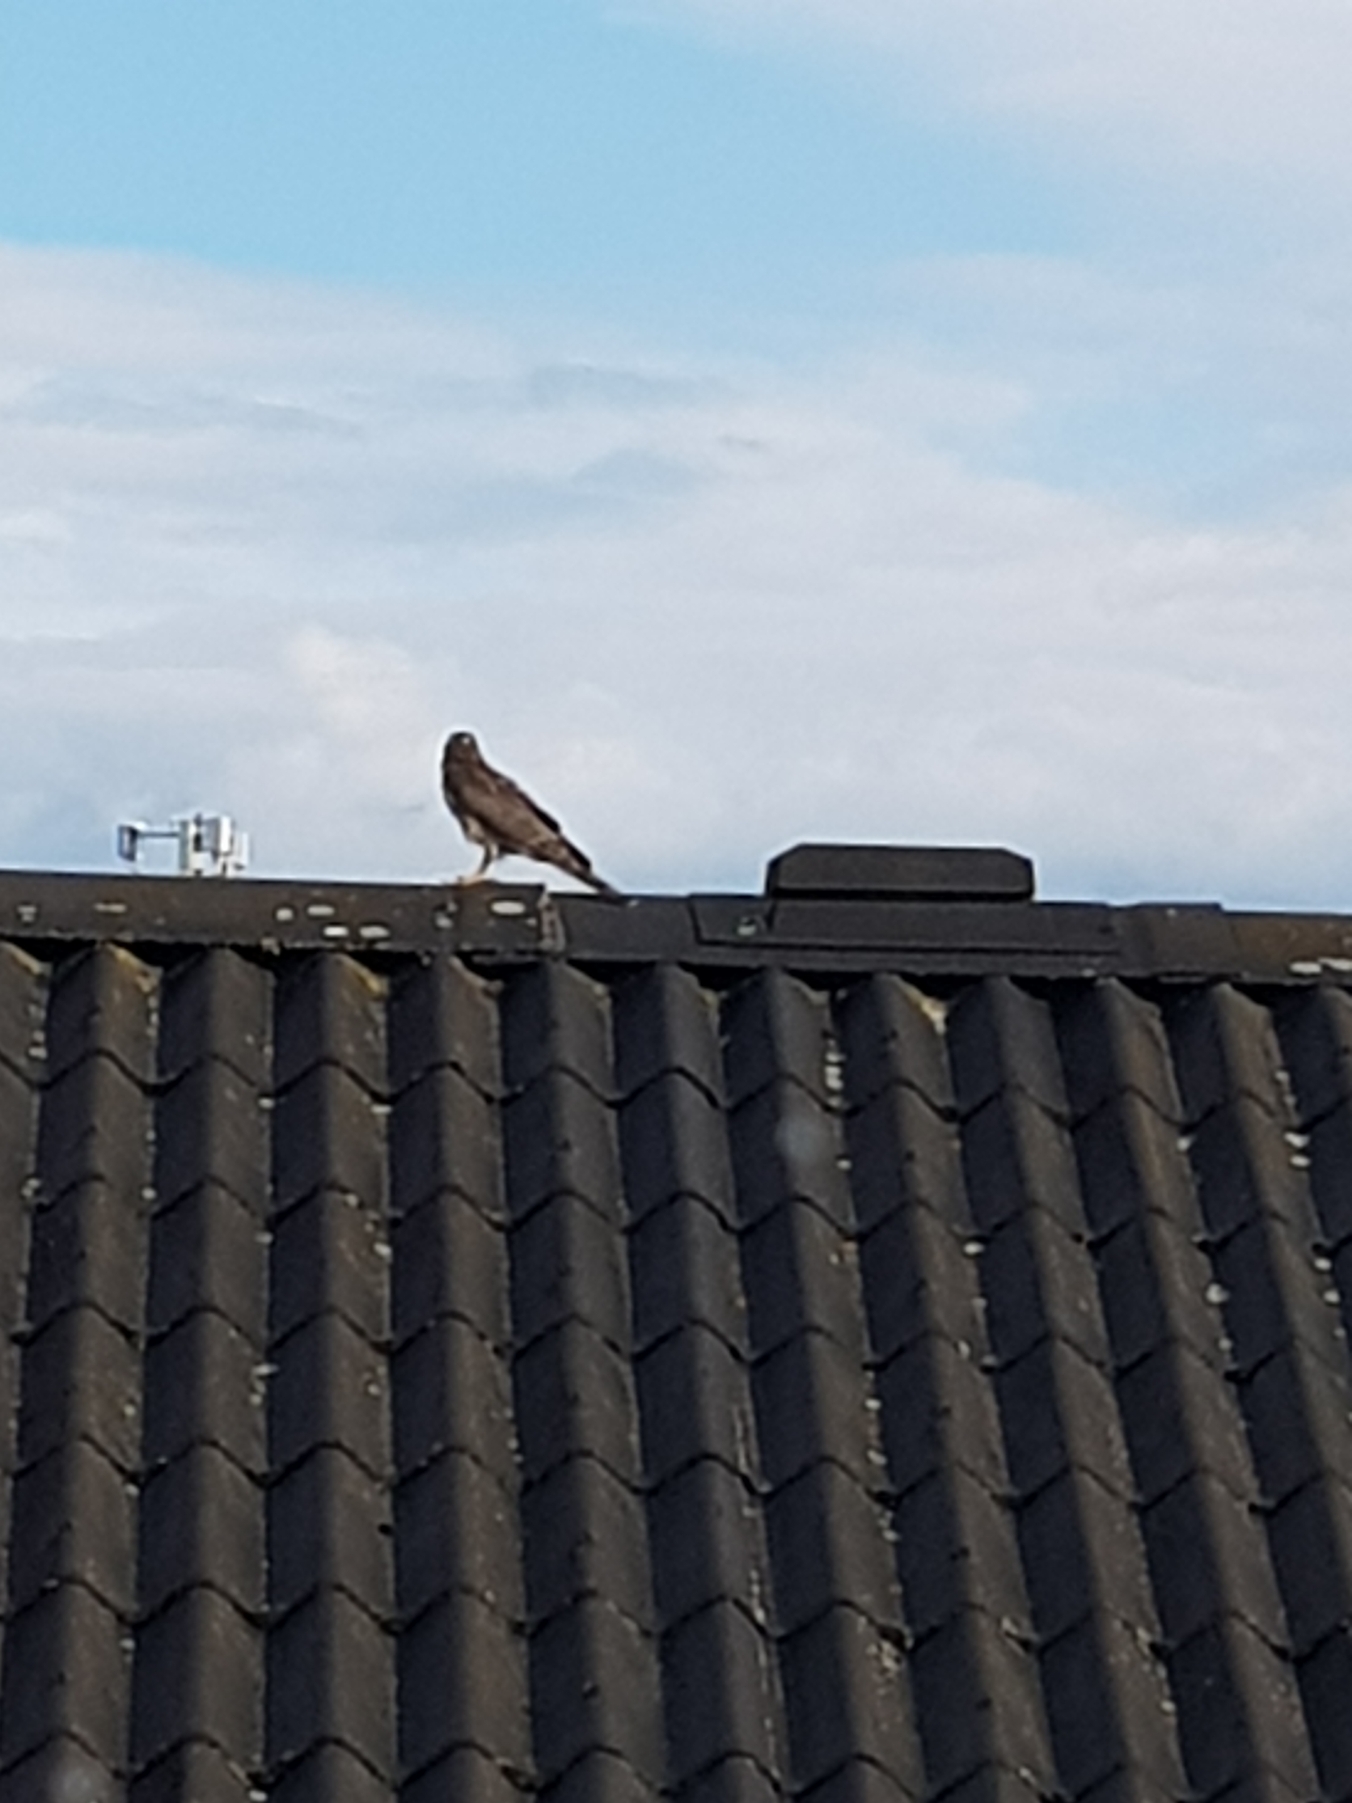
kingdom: Animalia
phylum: Chordata
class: Aves
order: Accipitriformes
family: Accipitridae
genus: Accipiter
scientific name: Accipiter nisus
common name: Spurvehøg
